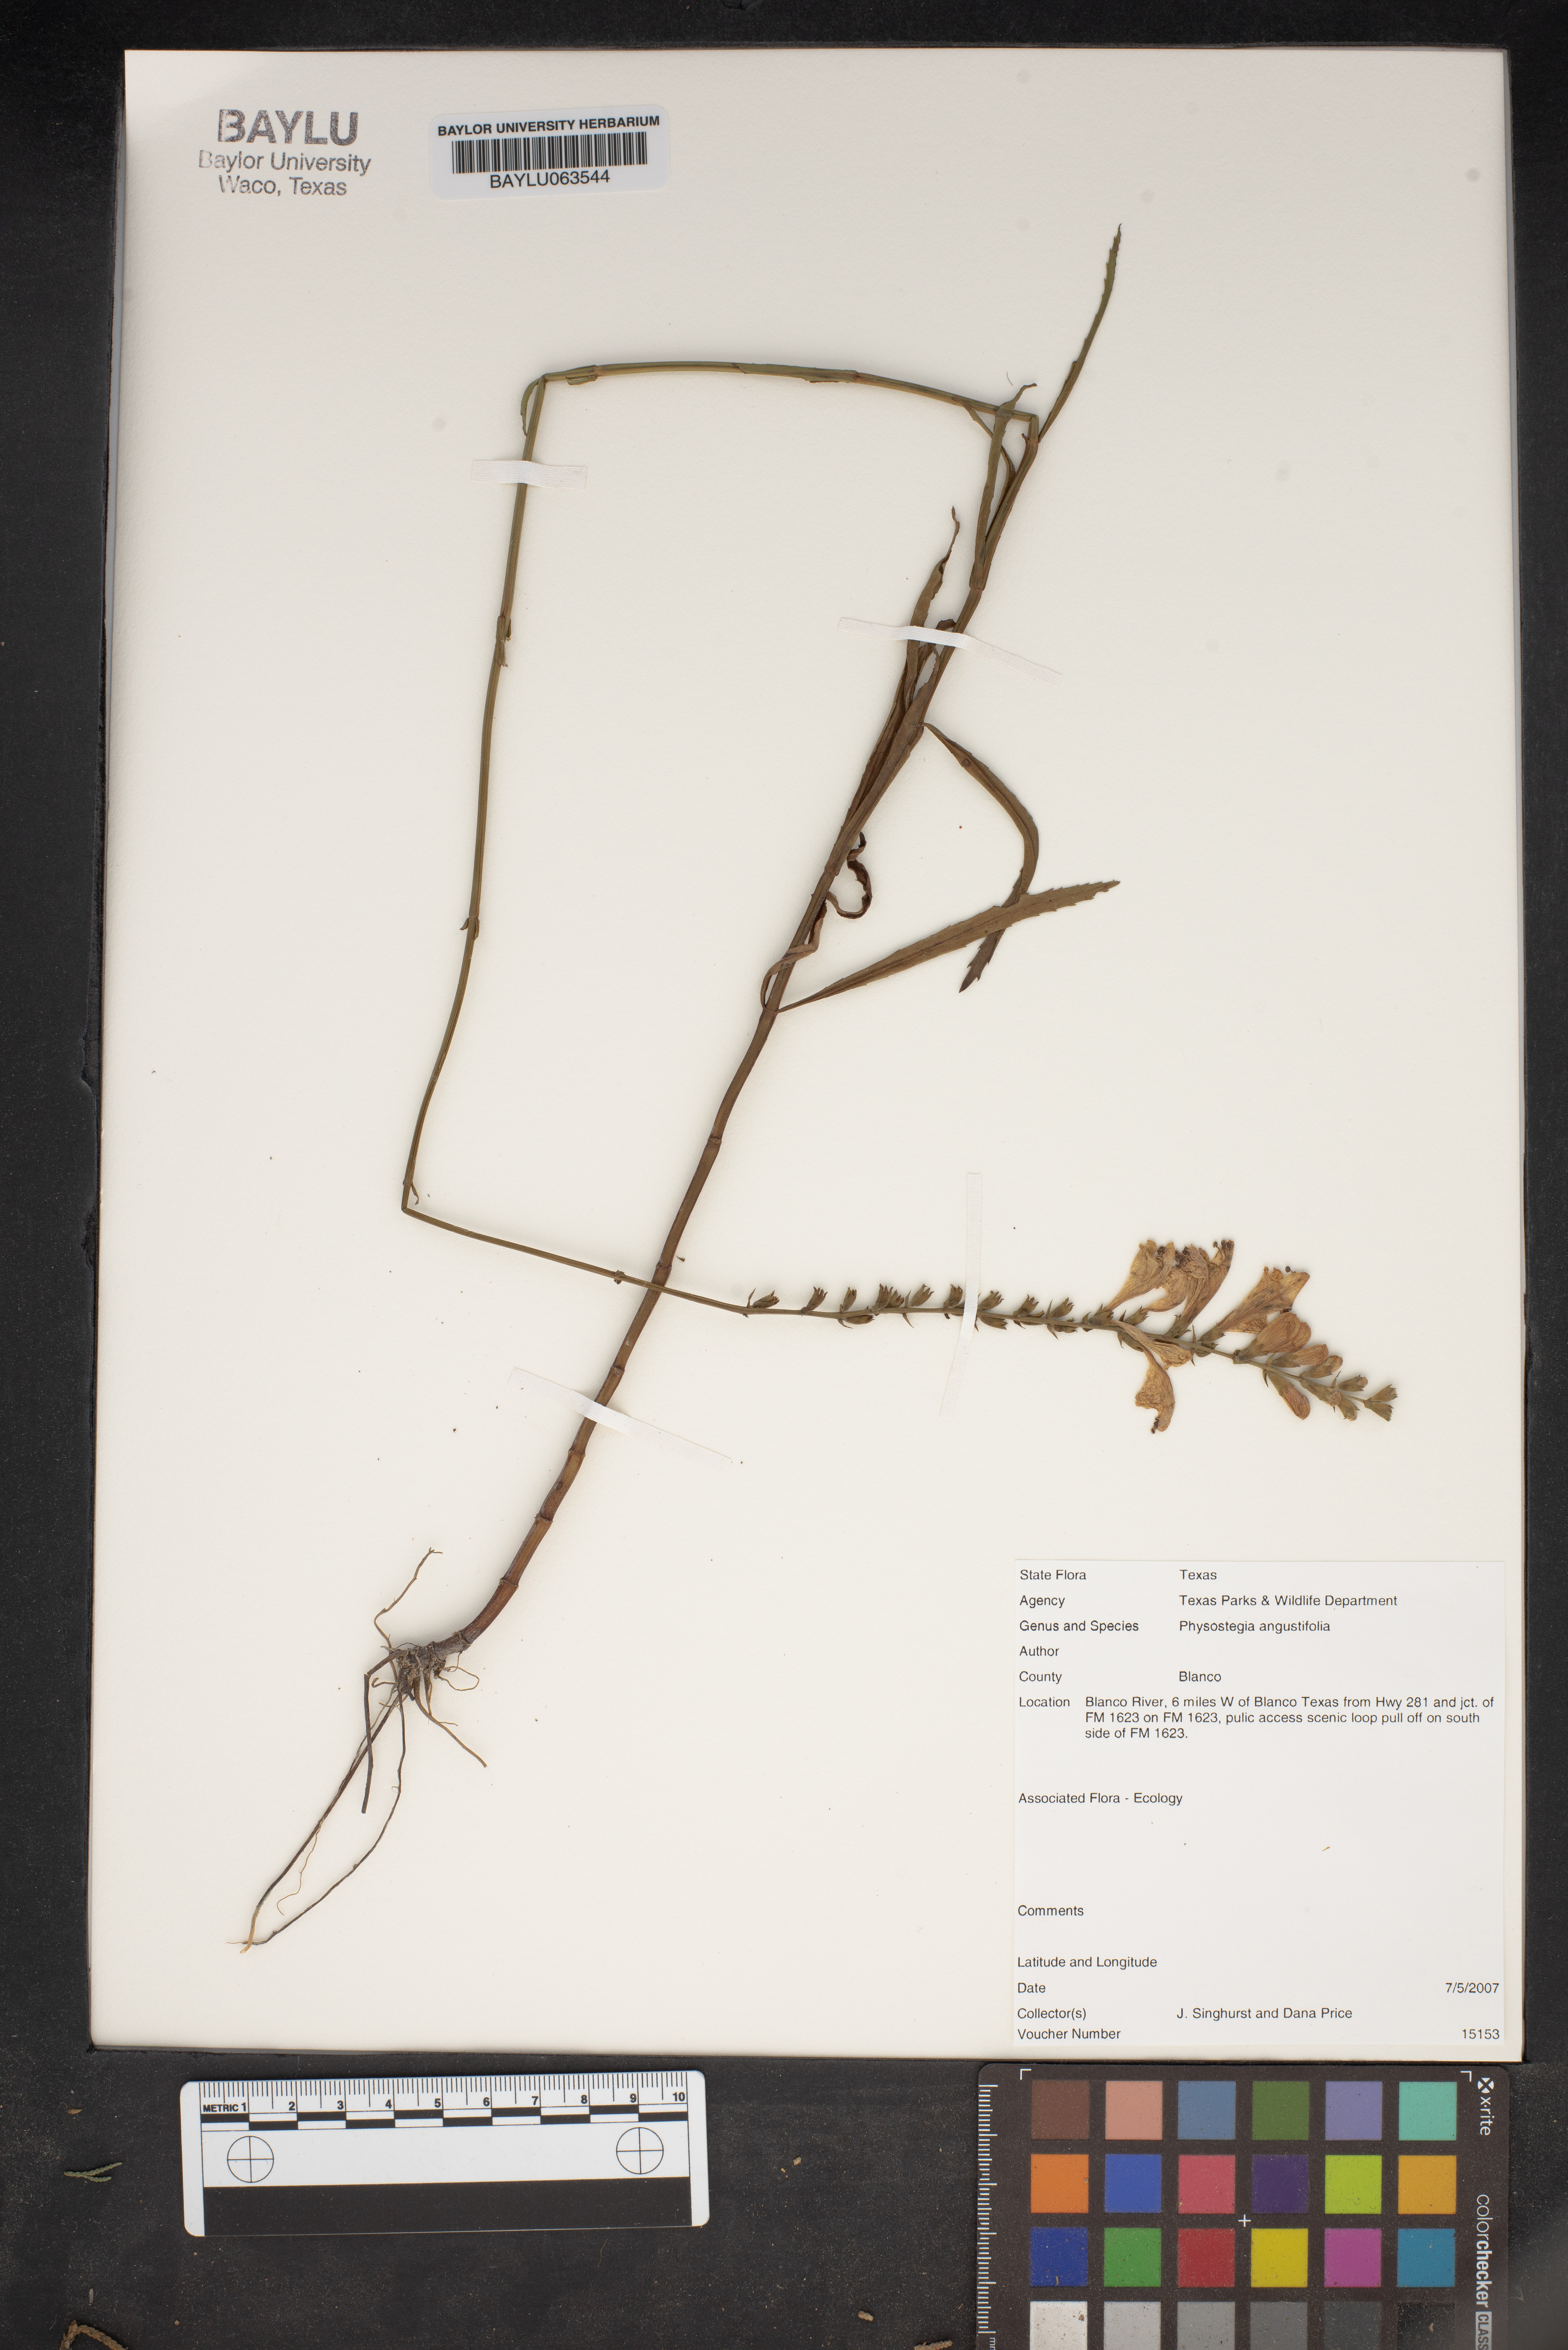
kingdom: Plantae
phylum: Tracheophyta
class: Magnoliopsida
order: Lamiales
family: Lamiaceae
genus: Physostegia
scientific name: Physostegia angustifolia
